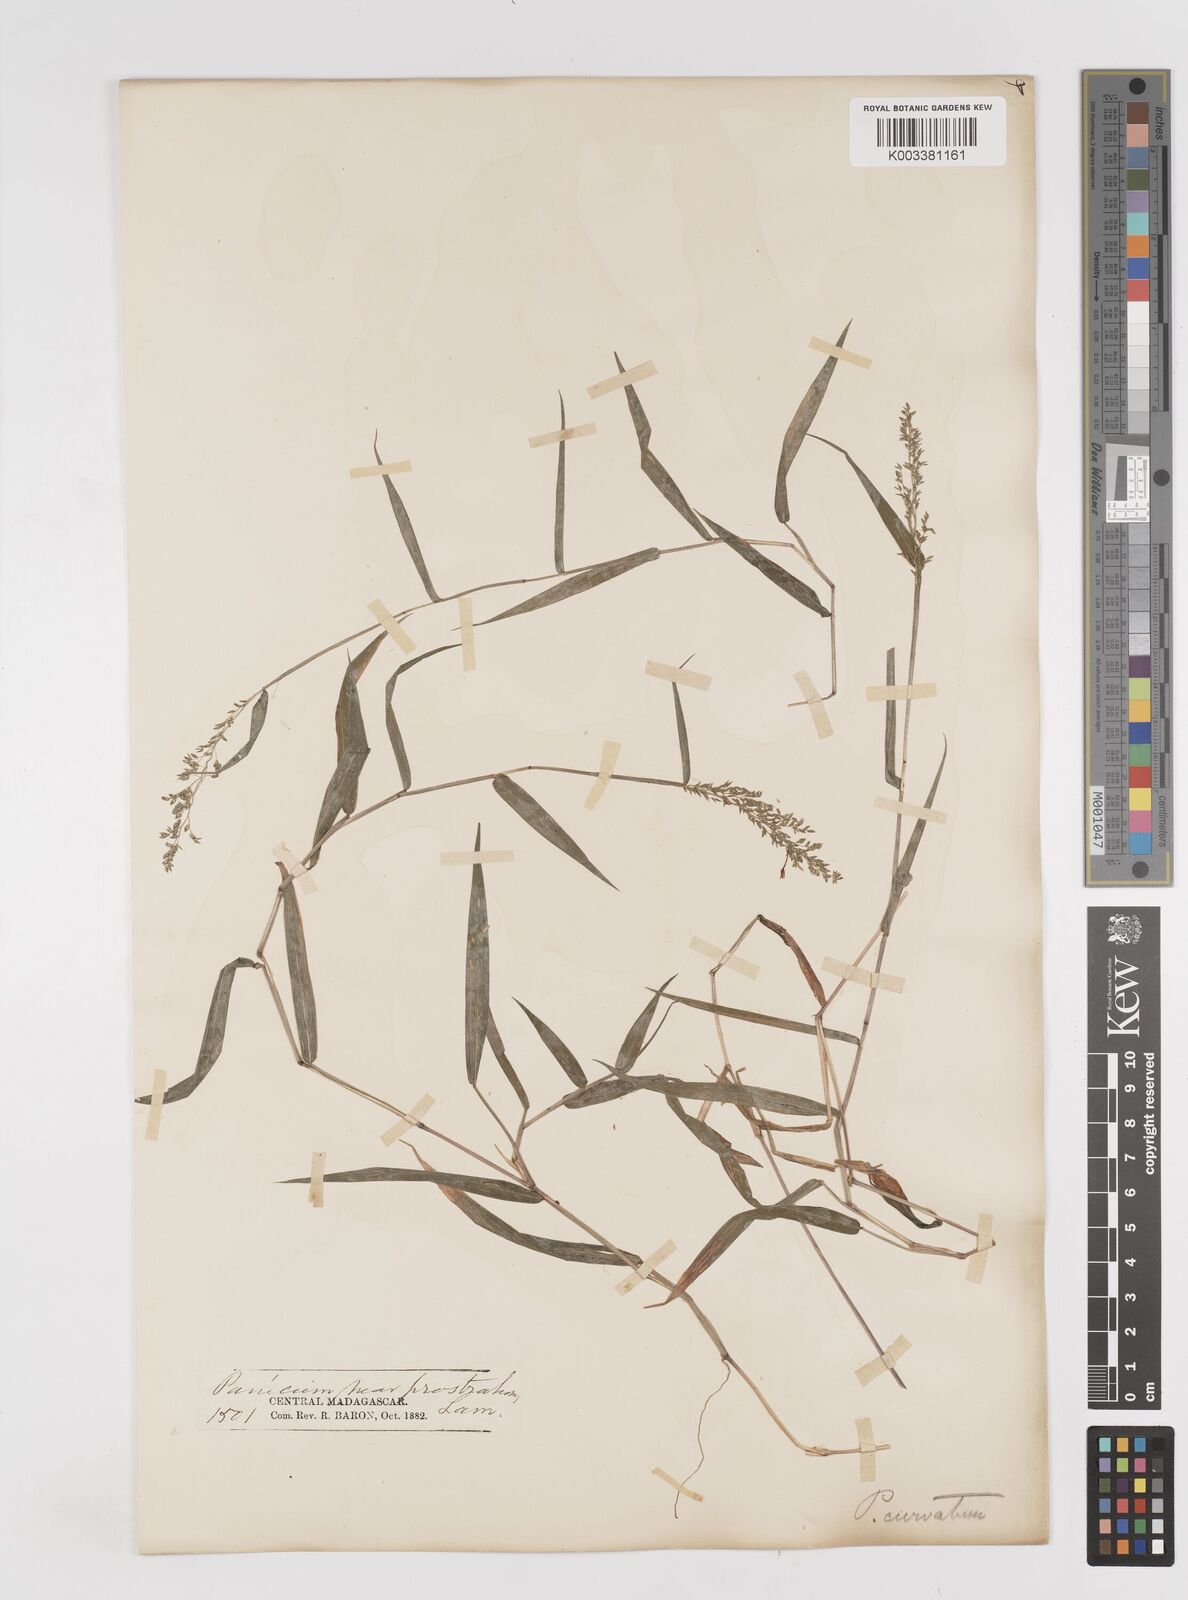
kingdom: Plantae
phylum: Tracheophyta
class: Liliopsida
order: Poales
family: Poaceae
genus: Sacciolepis
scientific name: Sacciolepis curvata
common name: Forest hood grass
